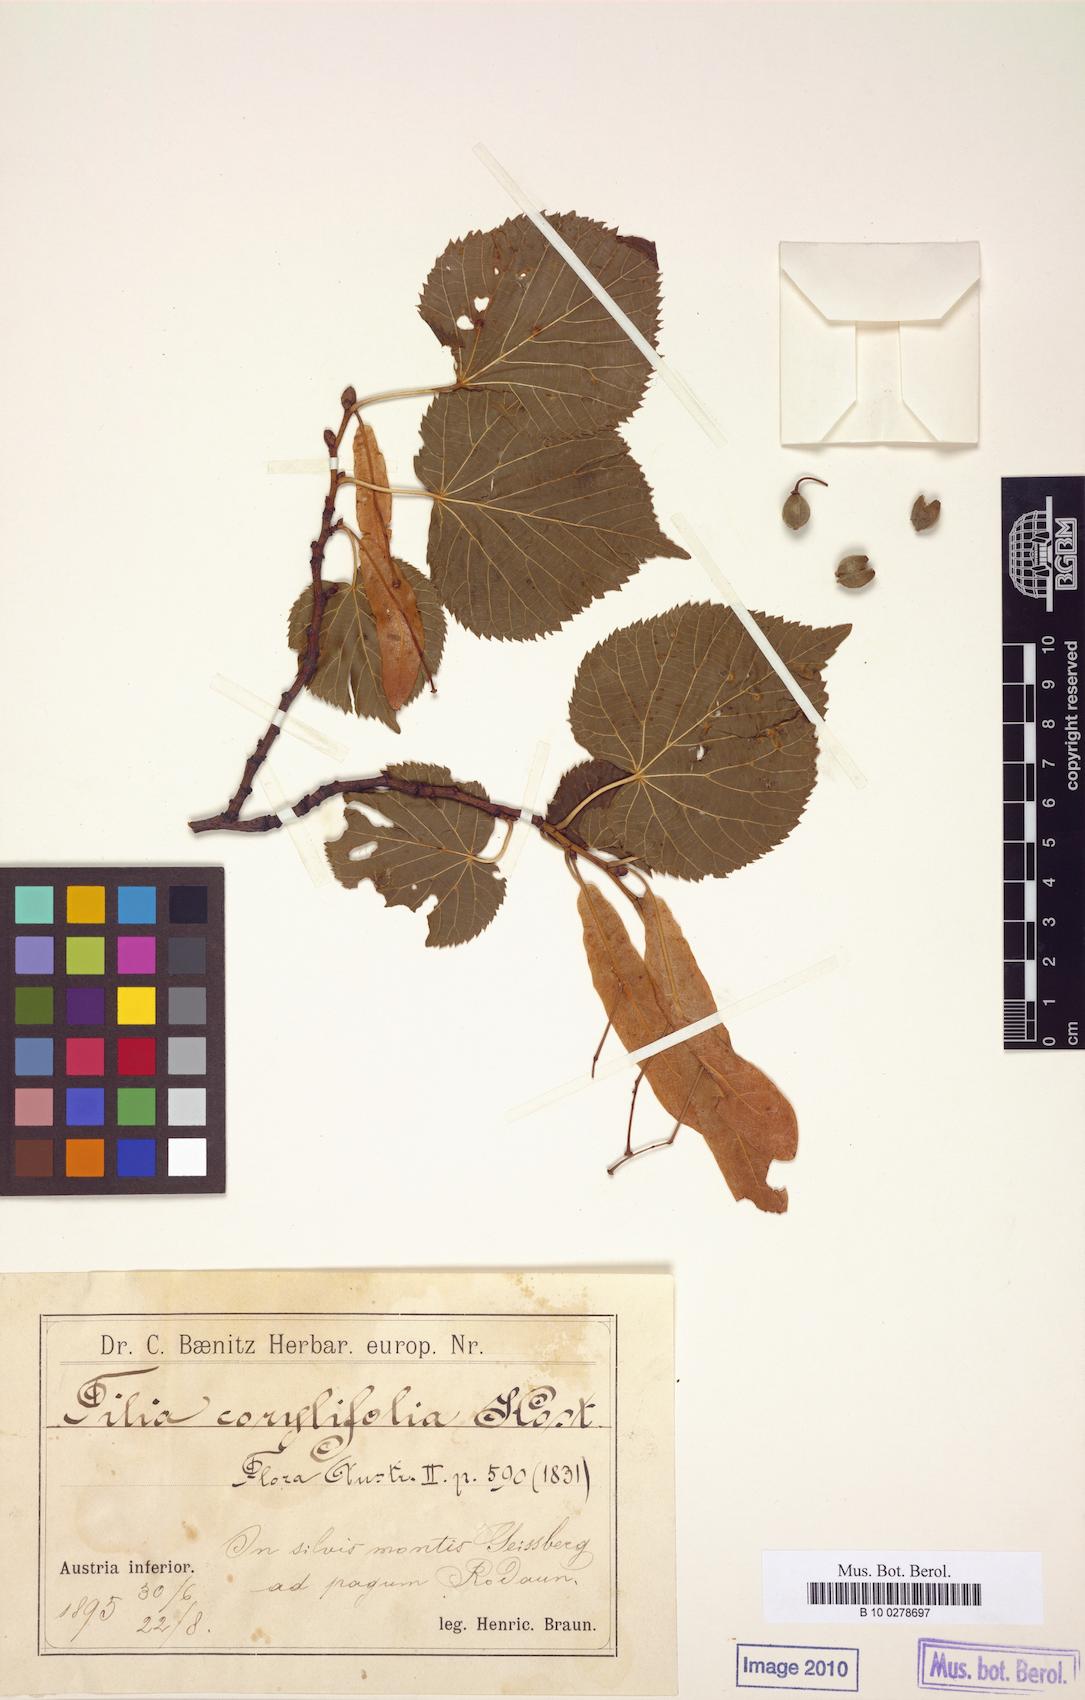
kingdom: Plantae
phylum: Tracheophyta
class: Magnoliopsida
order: Malvales
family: Malvaceae
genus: Tilia
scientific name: Tilia platyphyllos
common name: Large-leaved lime
